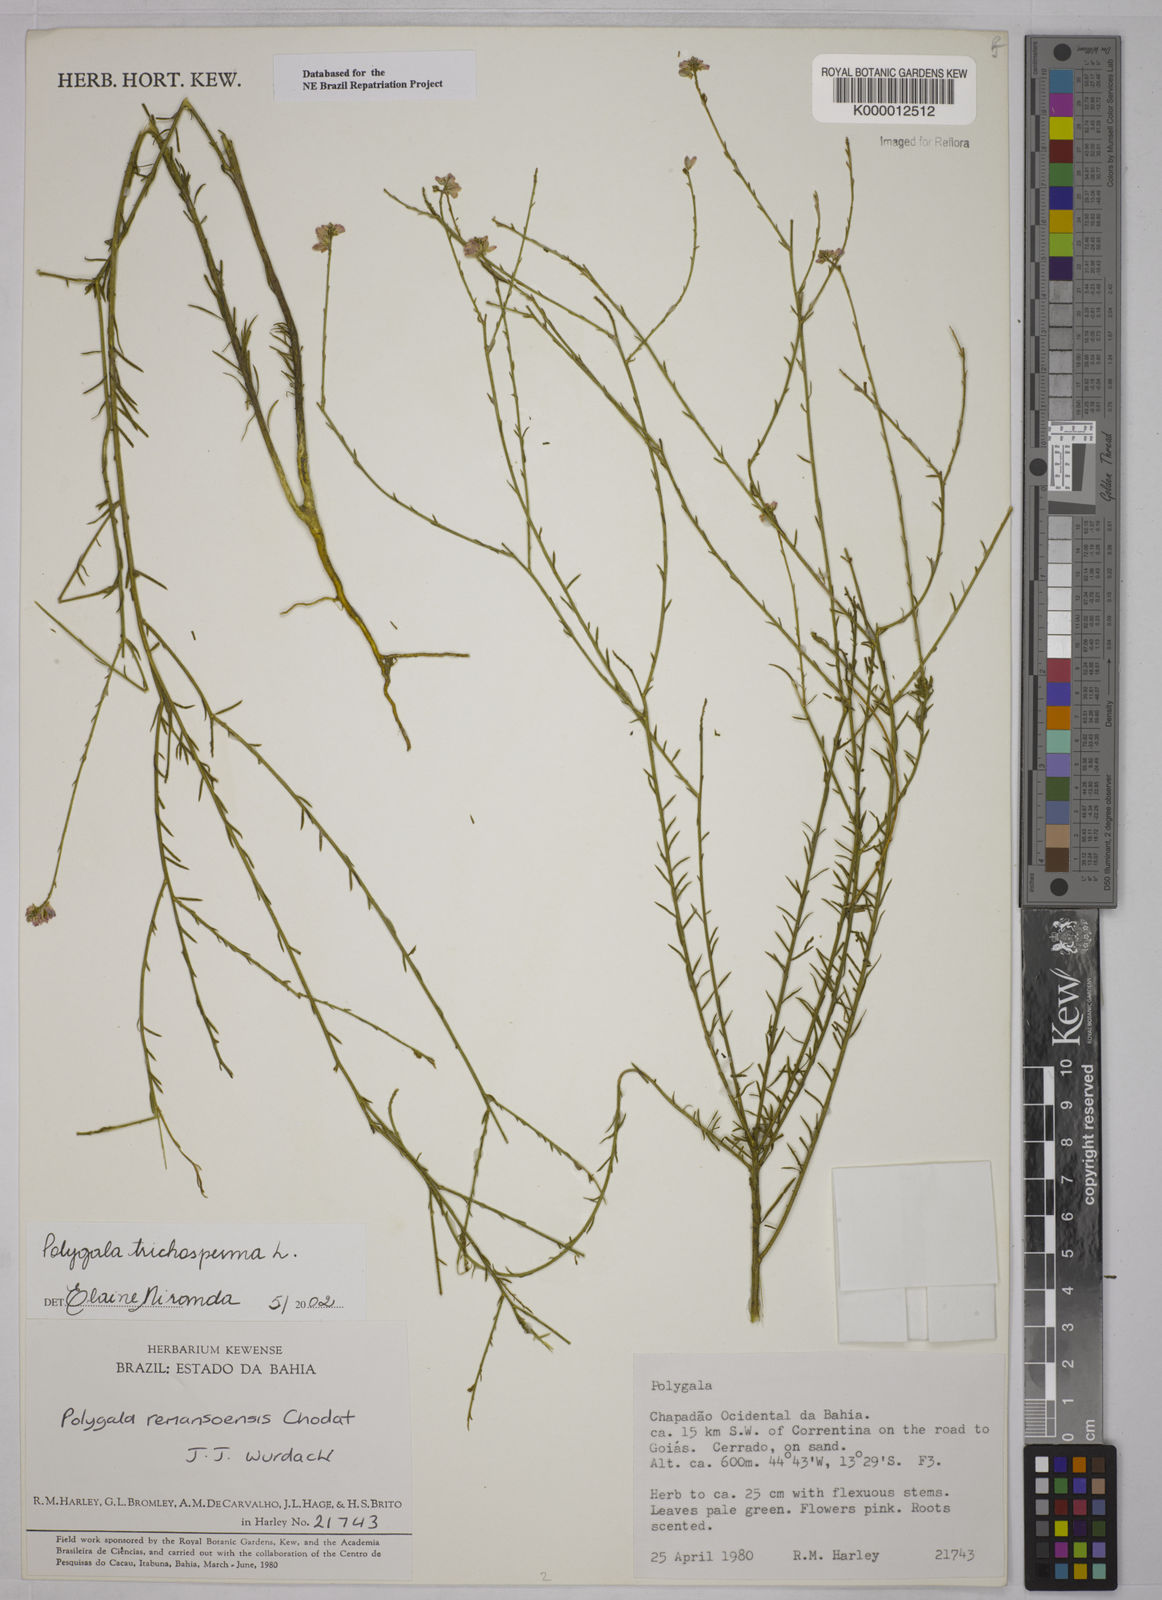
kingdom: Plantae
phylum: Tracheophyta
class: Magnoliopsida
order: Fabales
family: Polygalaceae
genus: Polygala
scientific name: Polygala
